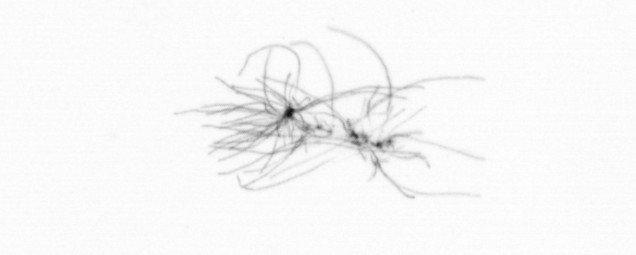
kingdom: Chromista
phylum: Ochrophyta
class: Bacillariophyceae
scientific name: Bacillariophyceae
